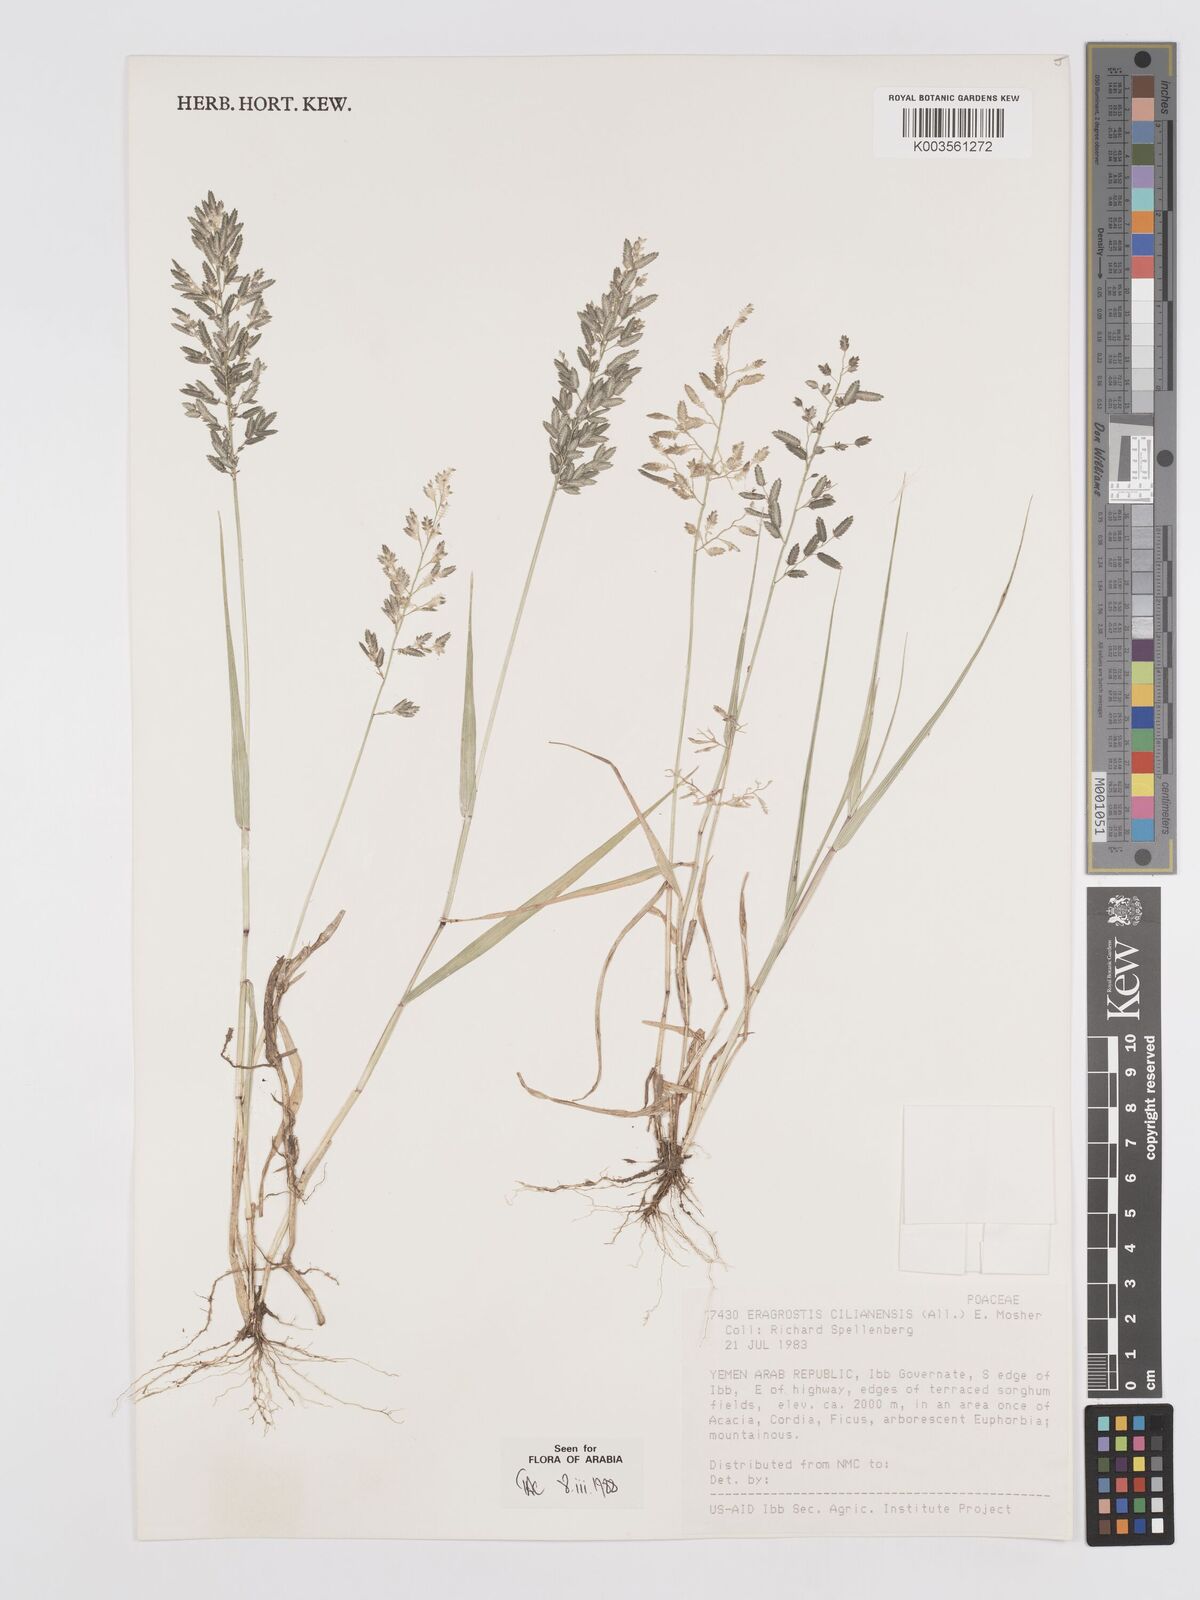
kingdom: Plantae
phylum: Tracheophyta
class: Liliopsida
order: Poales
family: Poaceae
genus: Eragrostis
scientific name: Eragrostis cilianensis
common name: Stinkgrass
